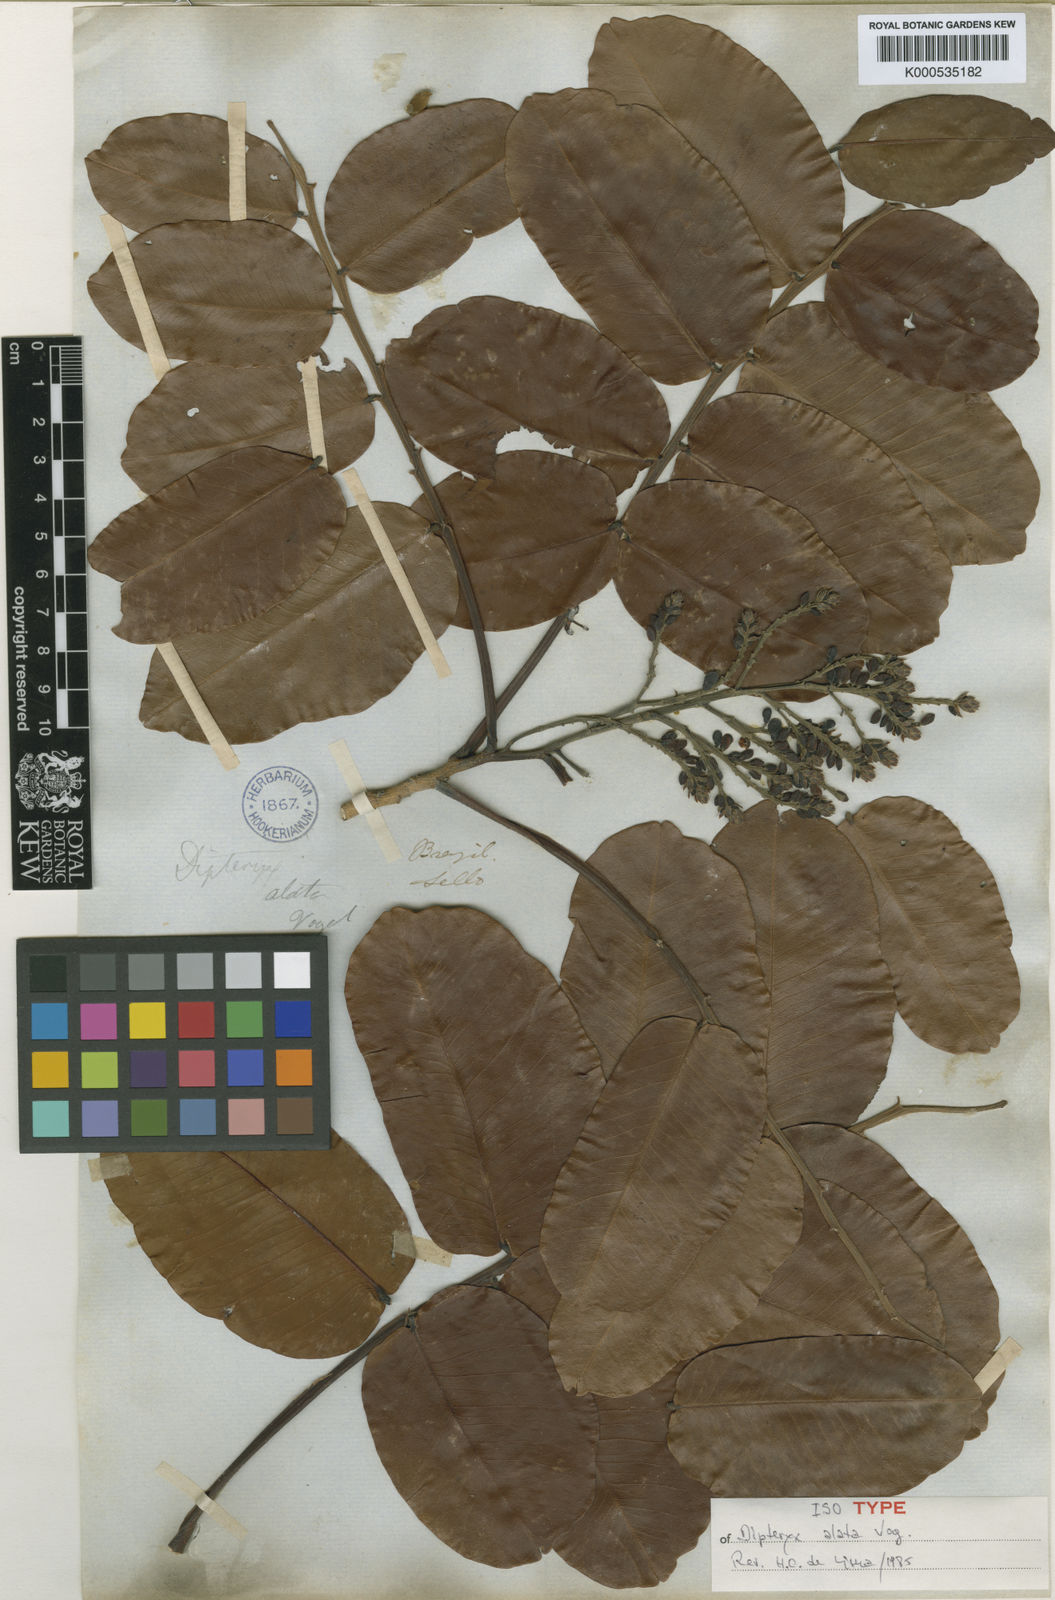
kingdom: Plantae
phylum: Tracheophyta
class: Magnoliopsida
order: Fabales
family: Fabaceae
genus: Dipteryx
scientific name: Dipteryx alata
